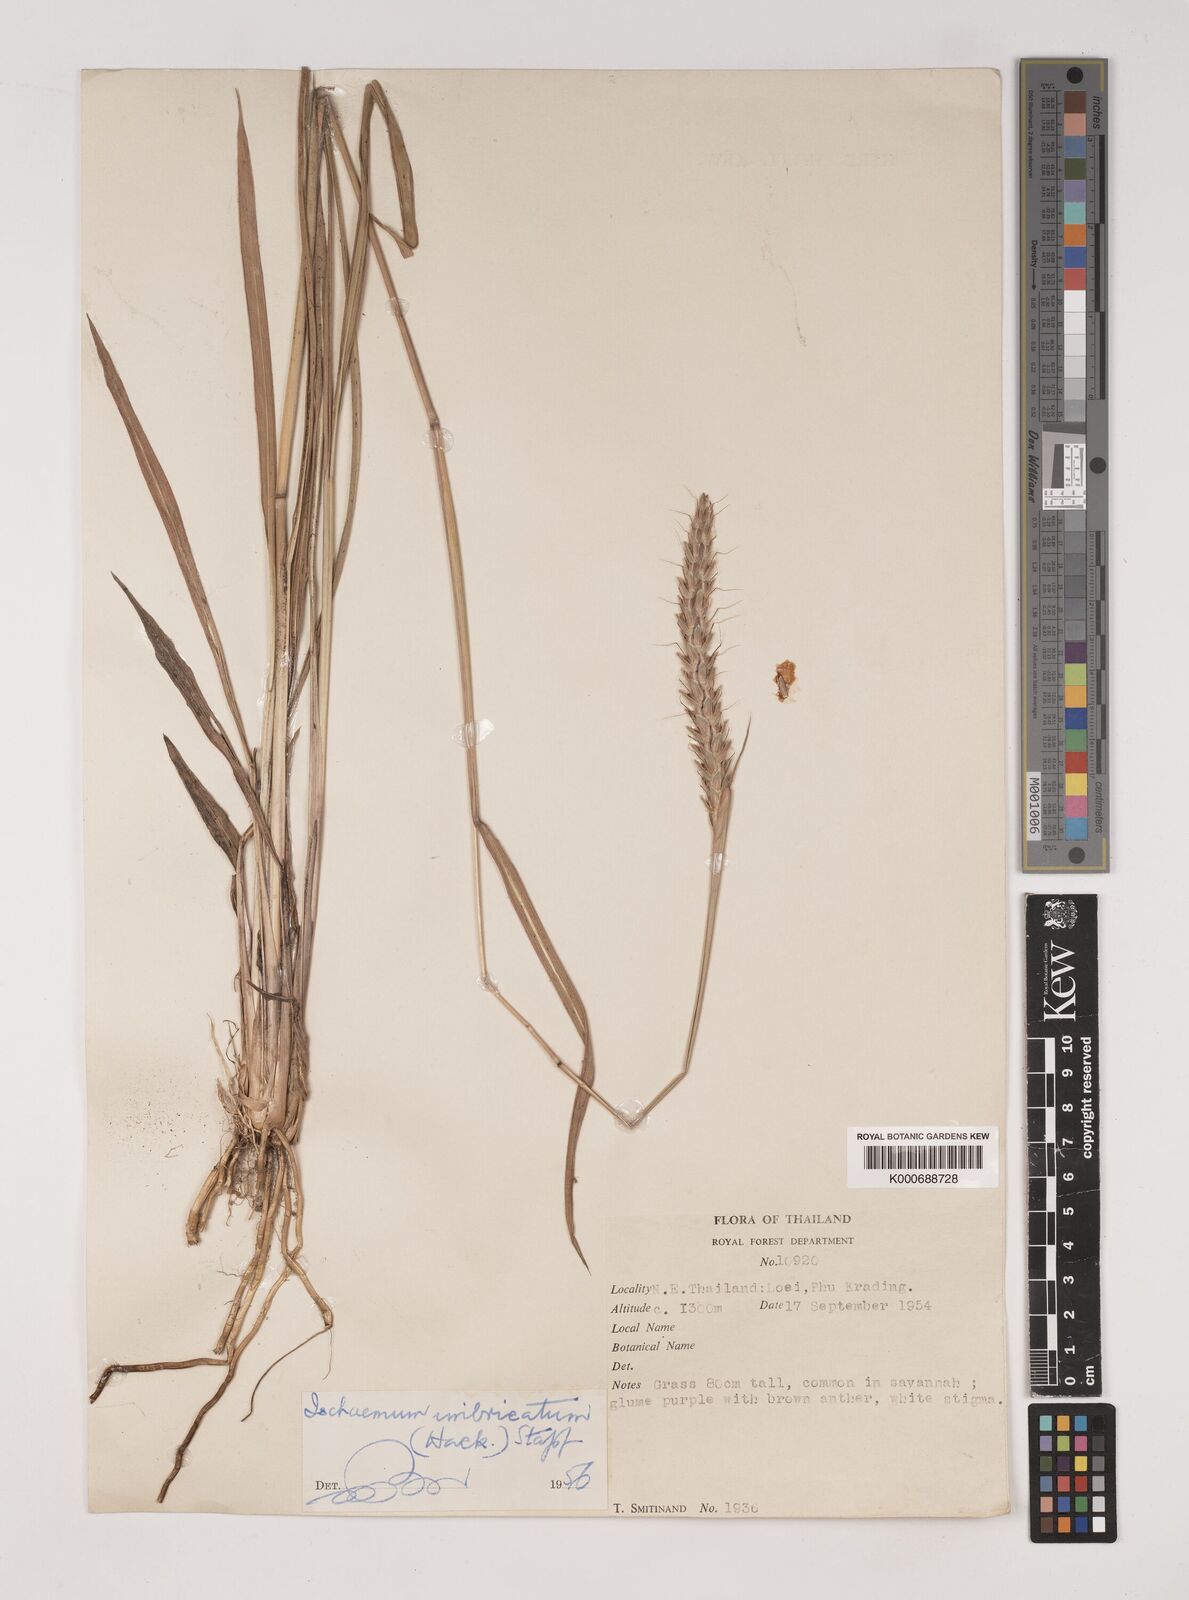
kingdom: Plantae
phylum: Tracheophyta
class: Liliopsida
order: Poales
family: Poaceae
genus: Ischaemum
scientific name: Ischaemum barbatum
